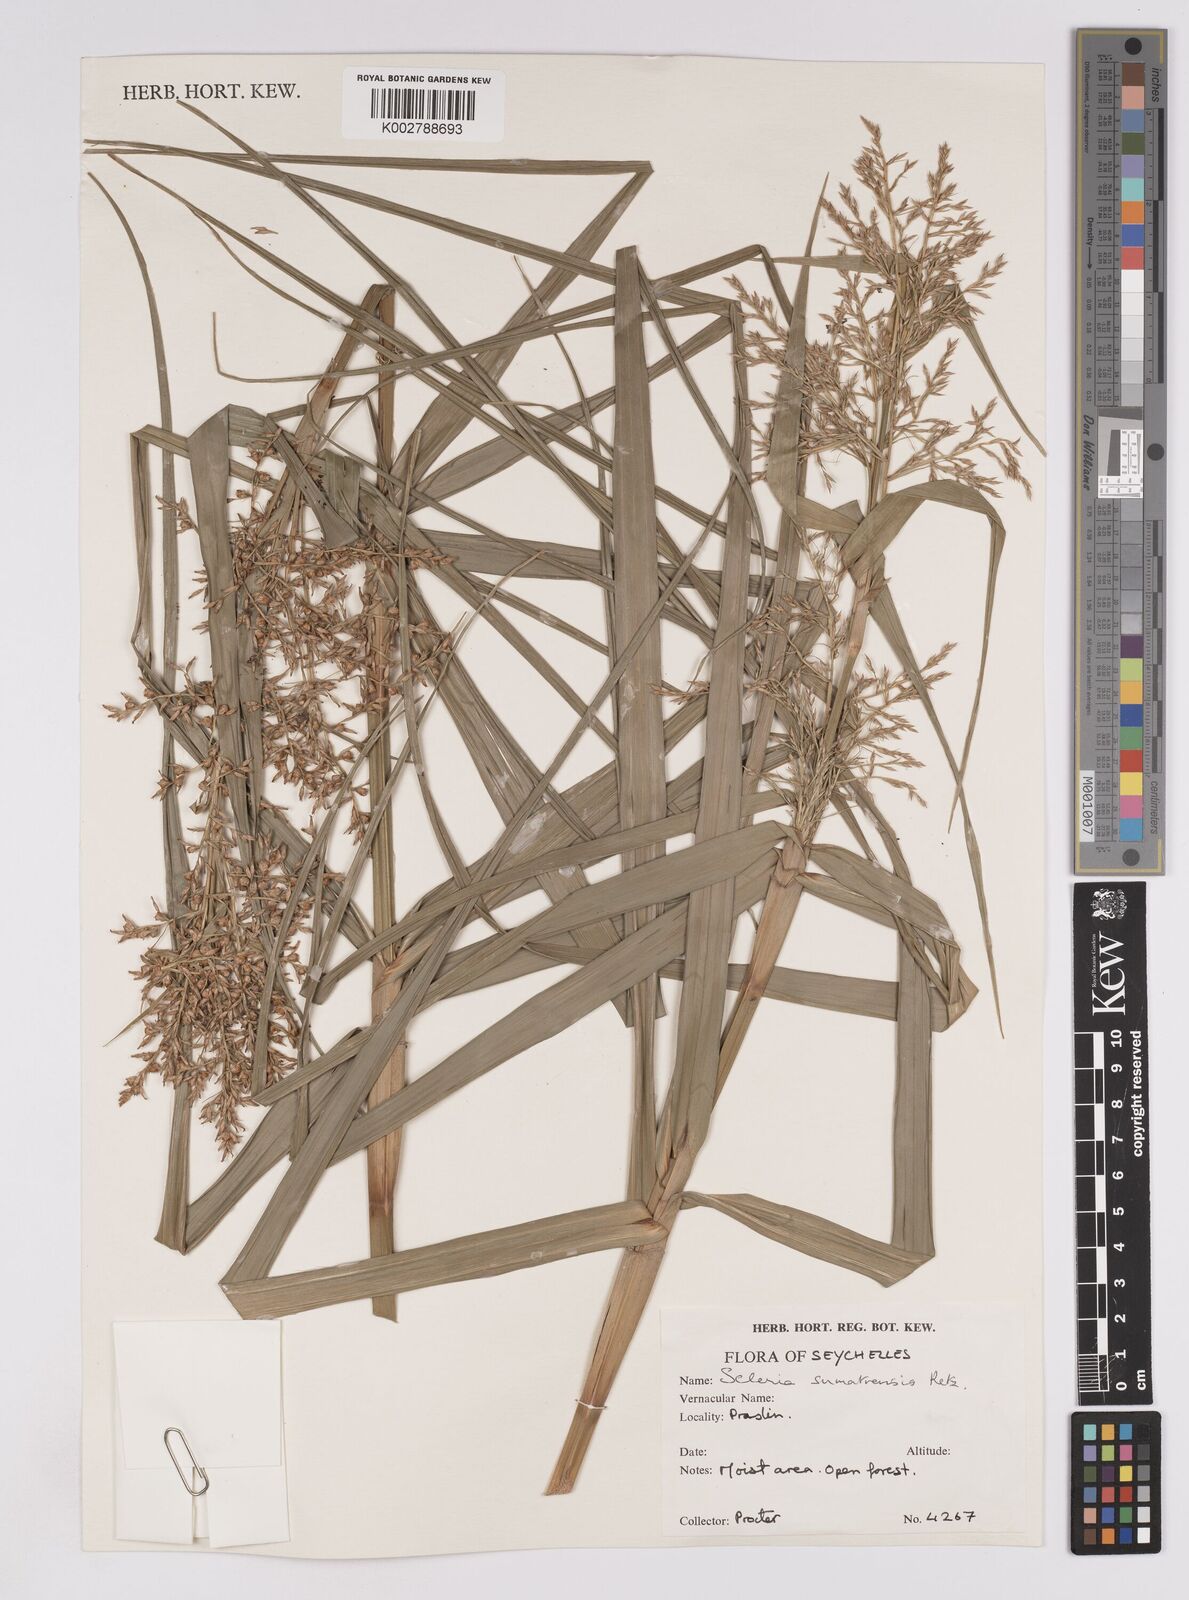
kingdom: Plantae
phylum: Tracheophyta
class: Liliopsida
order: Poales
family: Cyperaceae
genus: Scleria
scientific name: Scleria sumatrensis
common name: Sumatran scleria
